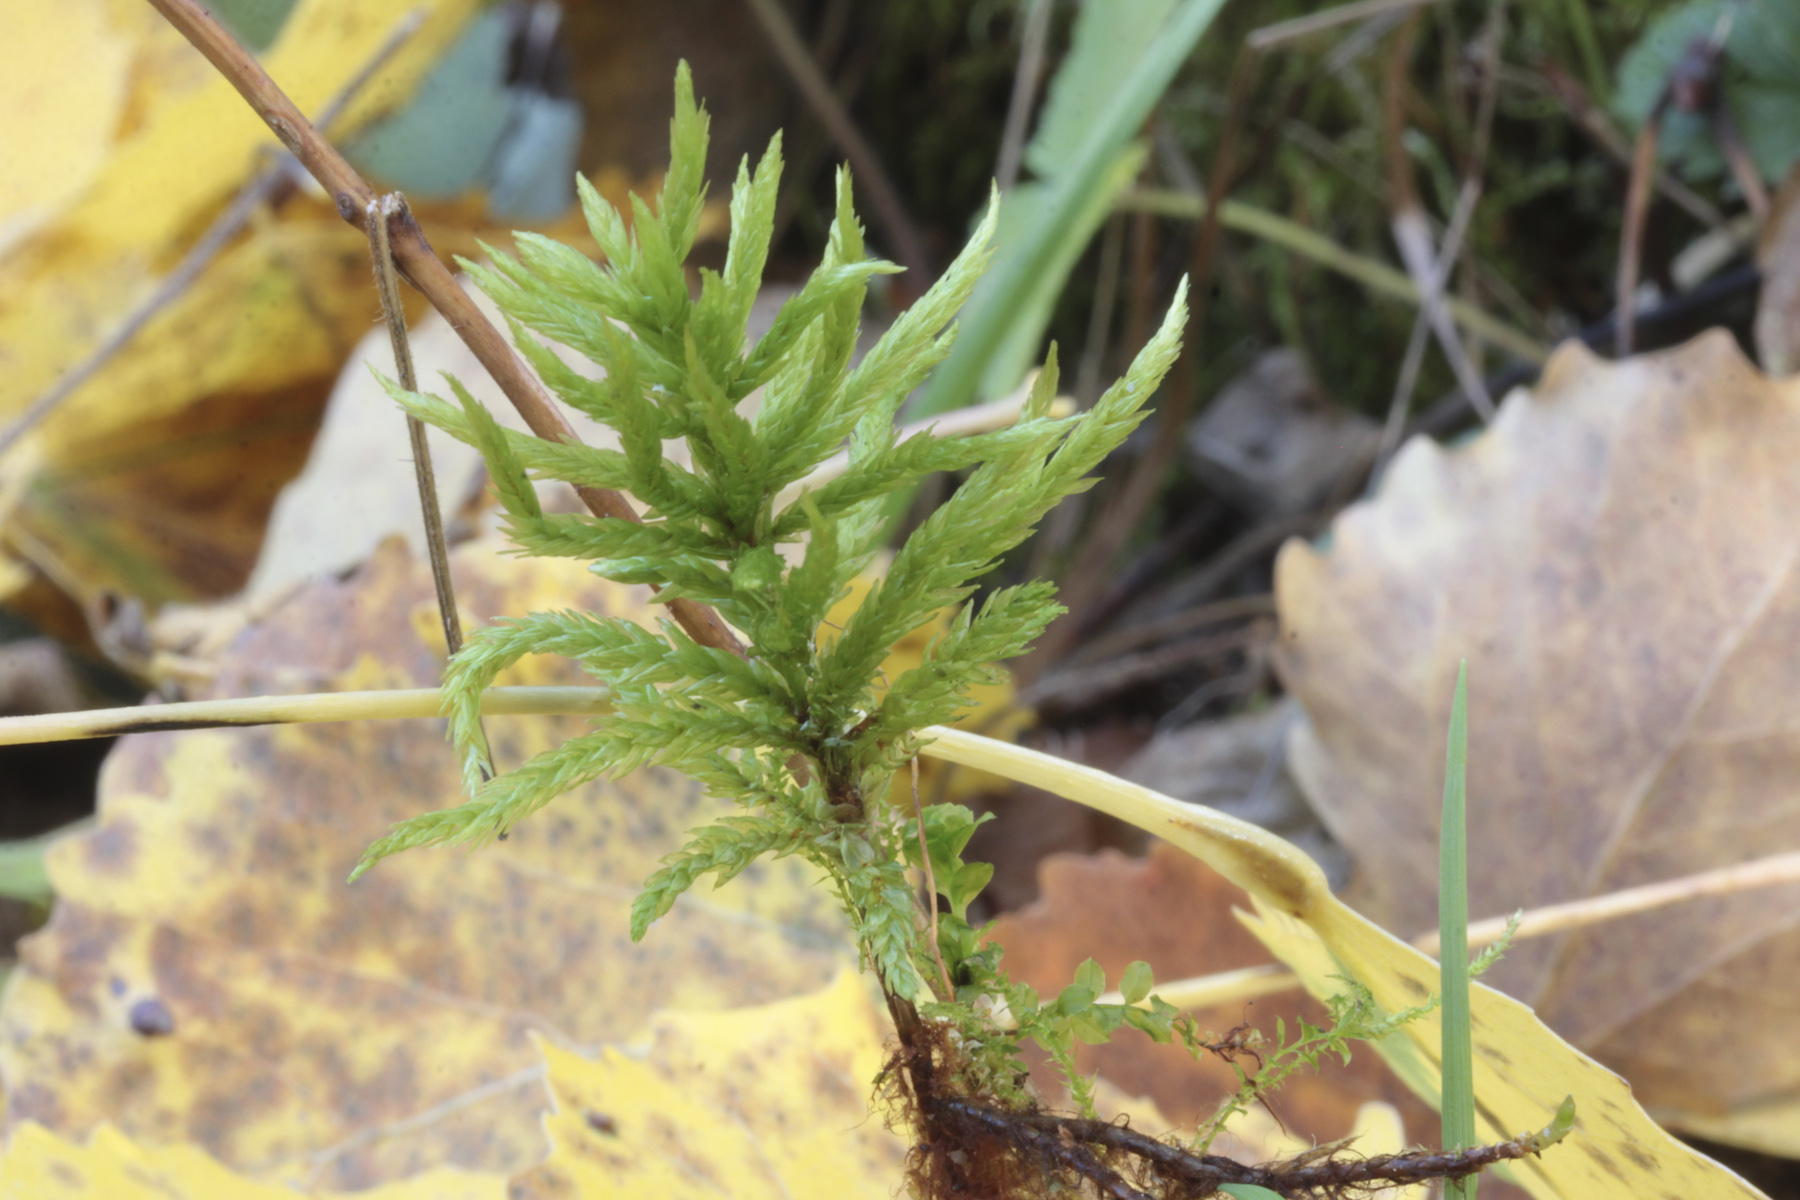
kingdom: Plantae
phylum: Bryophyta
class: Bryopsida
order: Hypnales
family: Climaciaceae
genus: Climacium
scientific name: Climacium dendroides
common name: Northern tree moss
